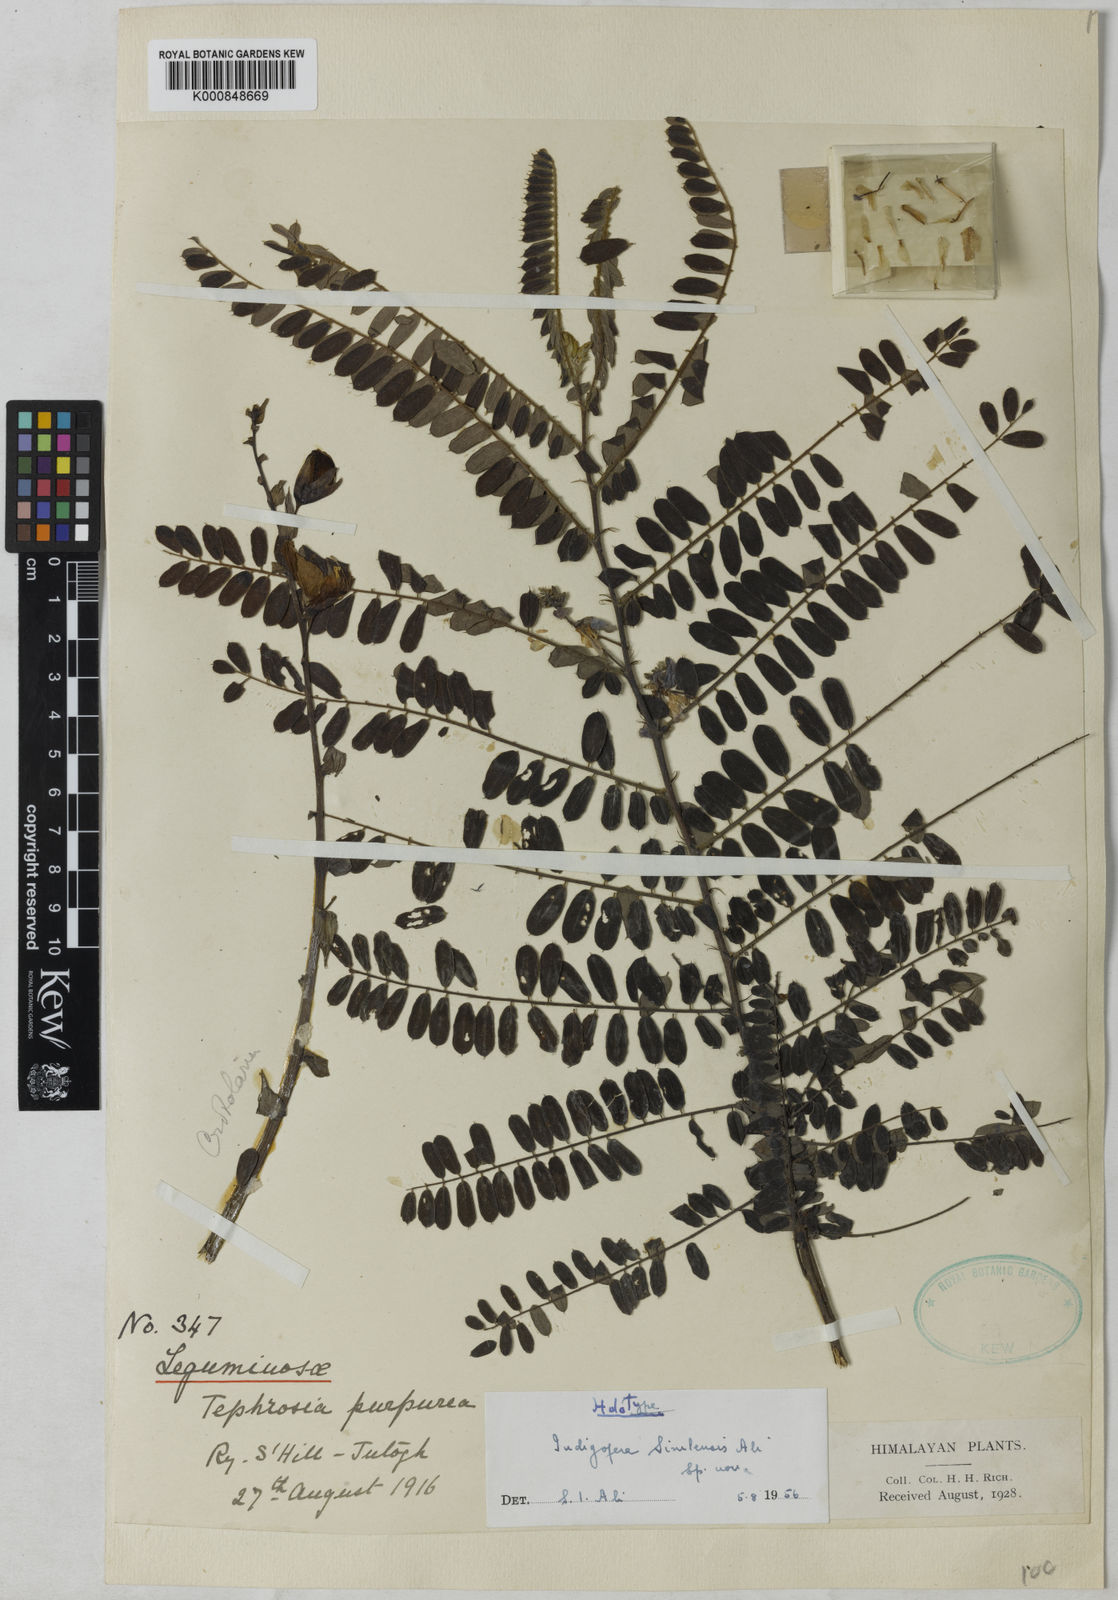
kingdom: Plantae
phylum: Tracheophyta
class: Magnoliopsida
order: Fabales
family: Fabaceae
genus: Indigofera
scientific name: Indigofera dosua
